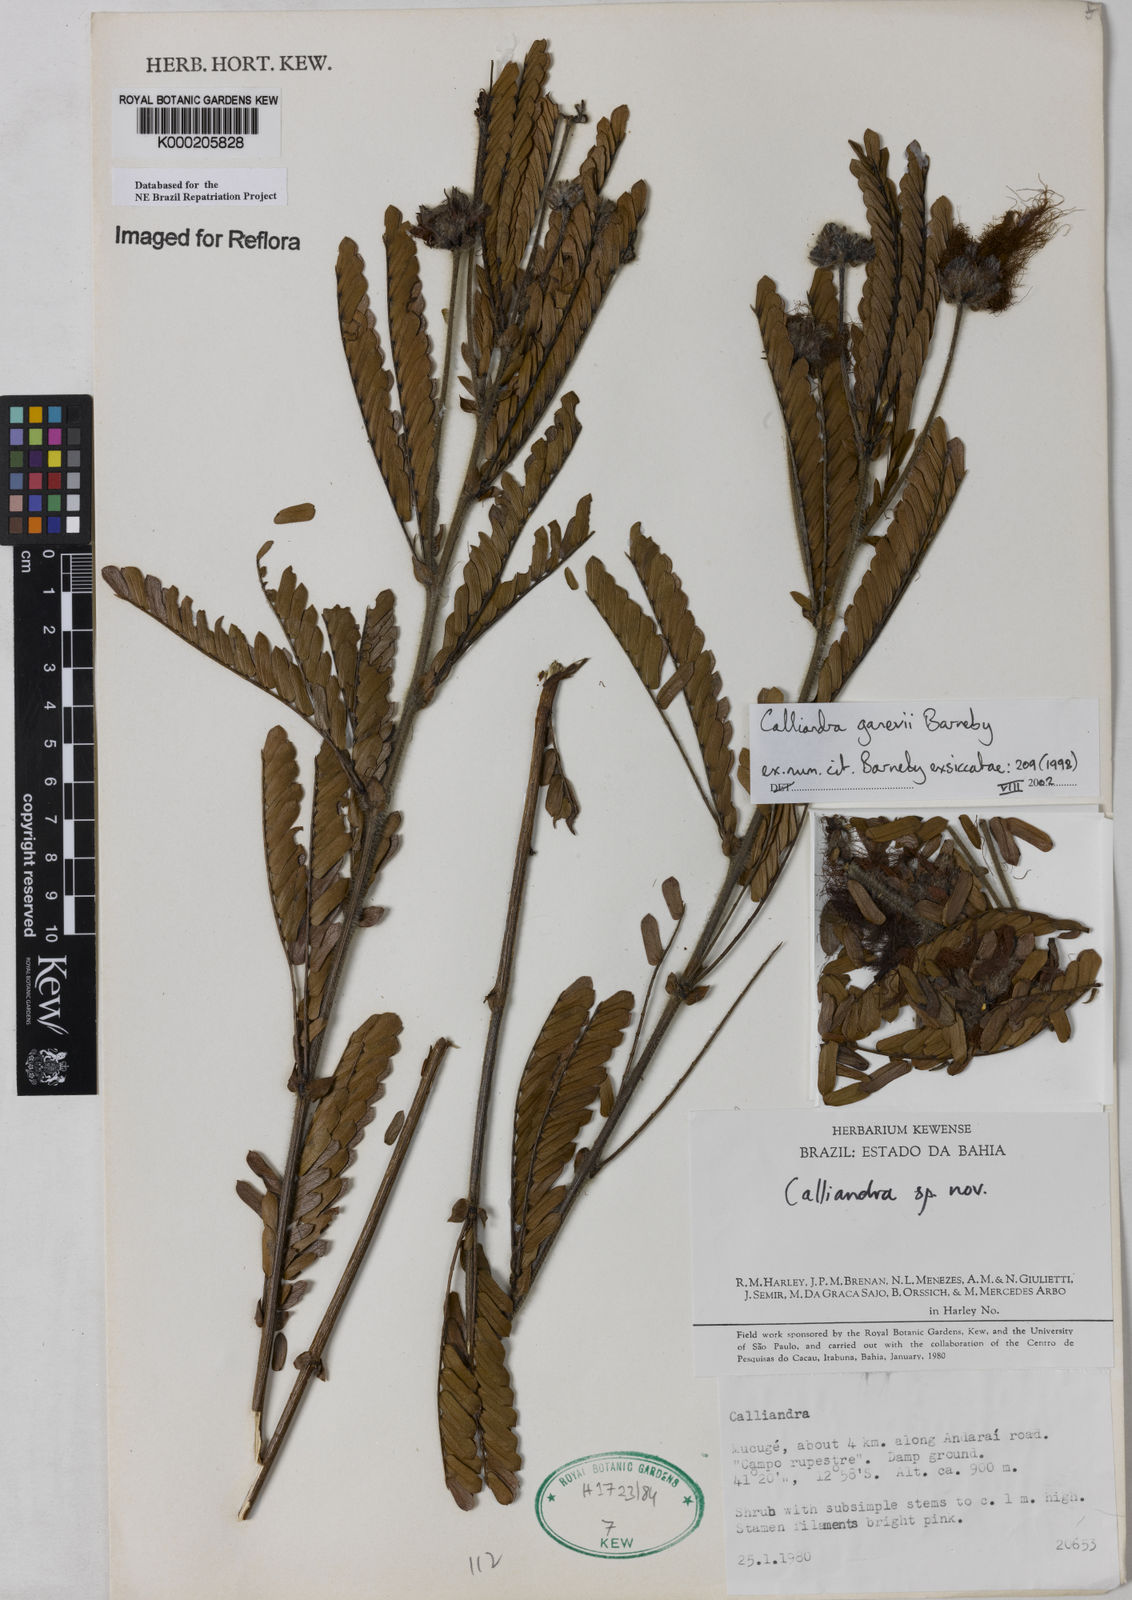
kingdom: Plantae
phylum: Tracheophyta
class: Magnoliopsida
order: Fabales
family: Fabaceae
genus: Calliandra
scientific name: Calliandra ganevii
